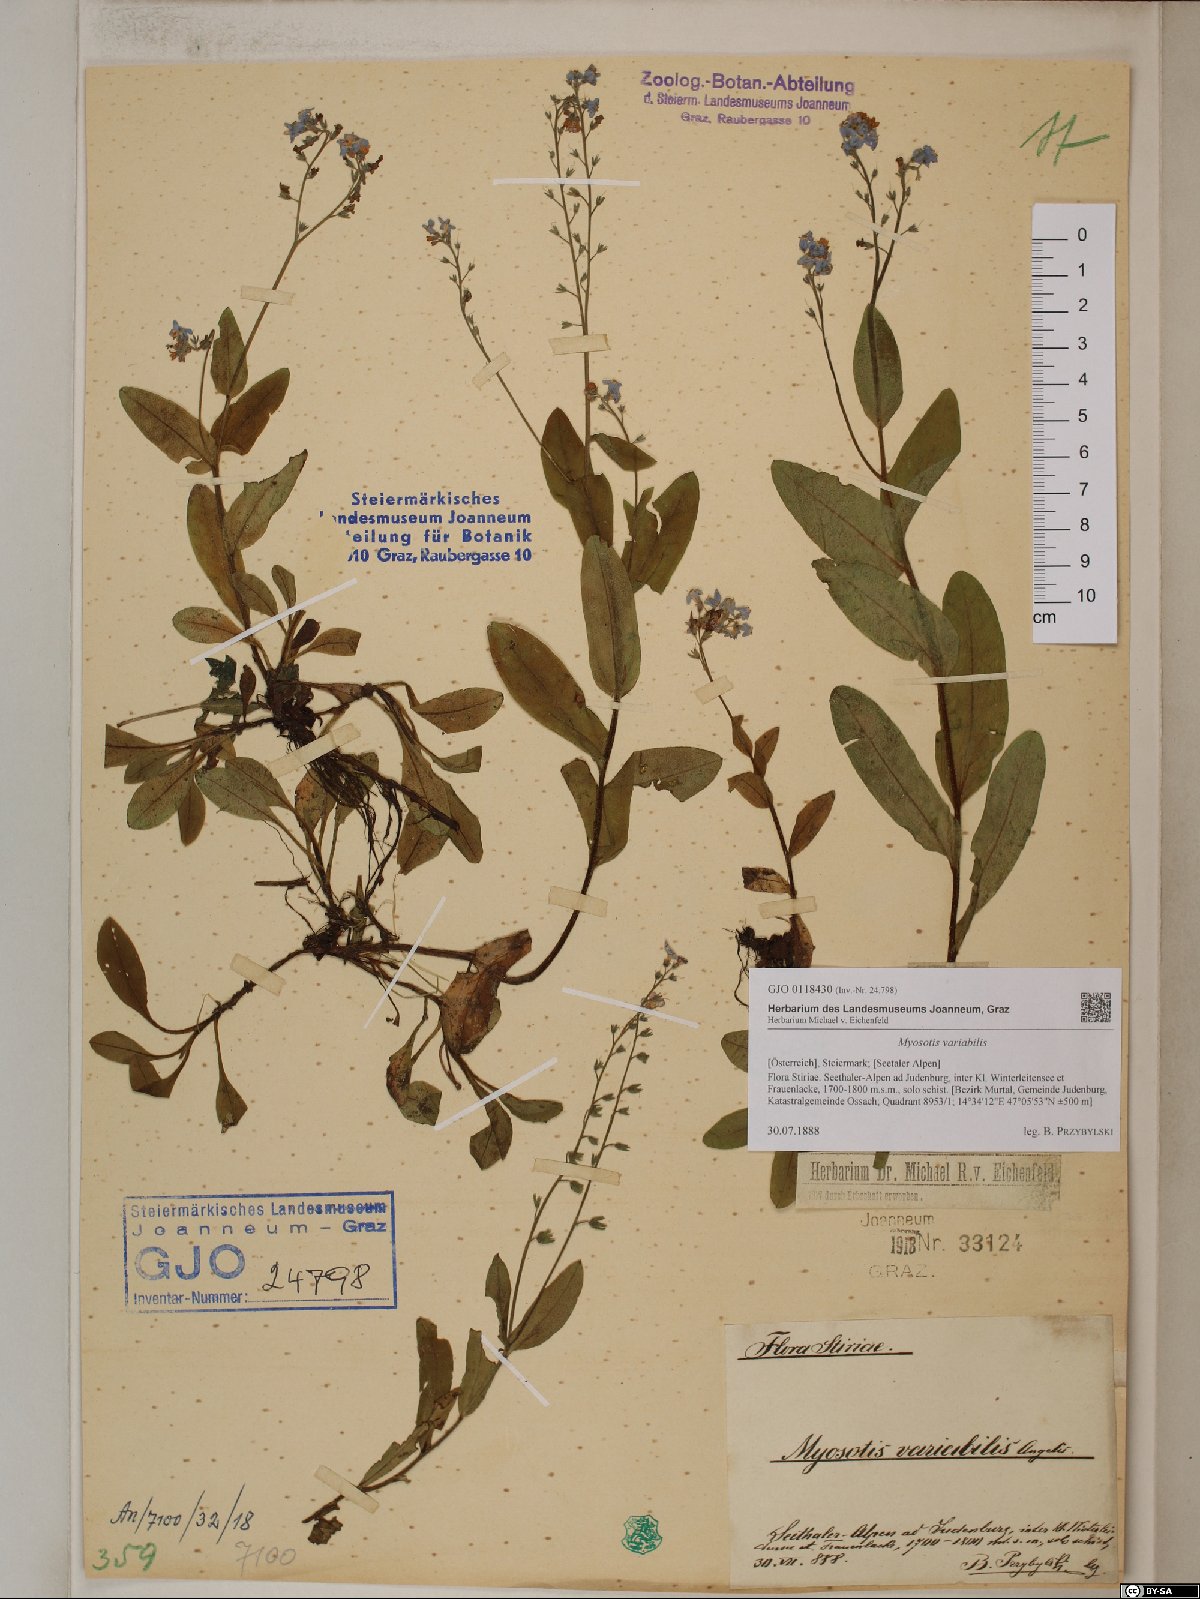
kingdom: Plantae
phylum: Tracheophyta
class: Magnoliopsida
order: Boraginales
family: Boraginaceae
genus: Myosotis
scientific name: Myosotis decumbens
